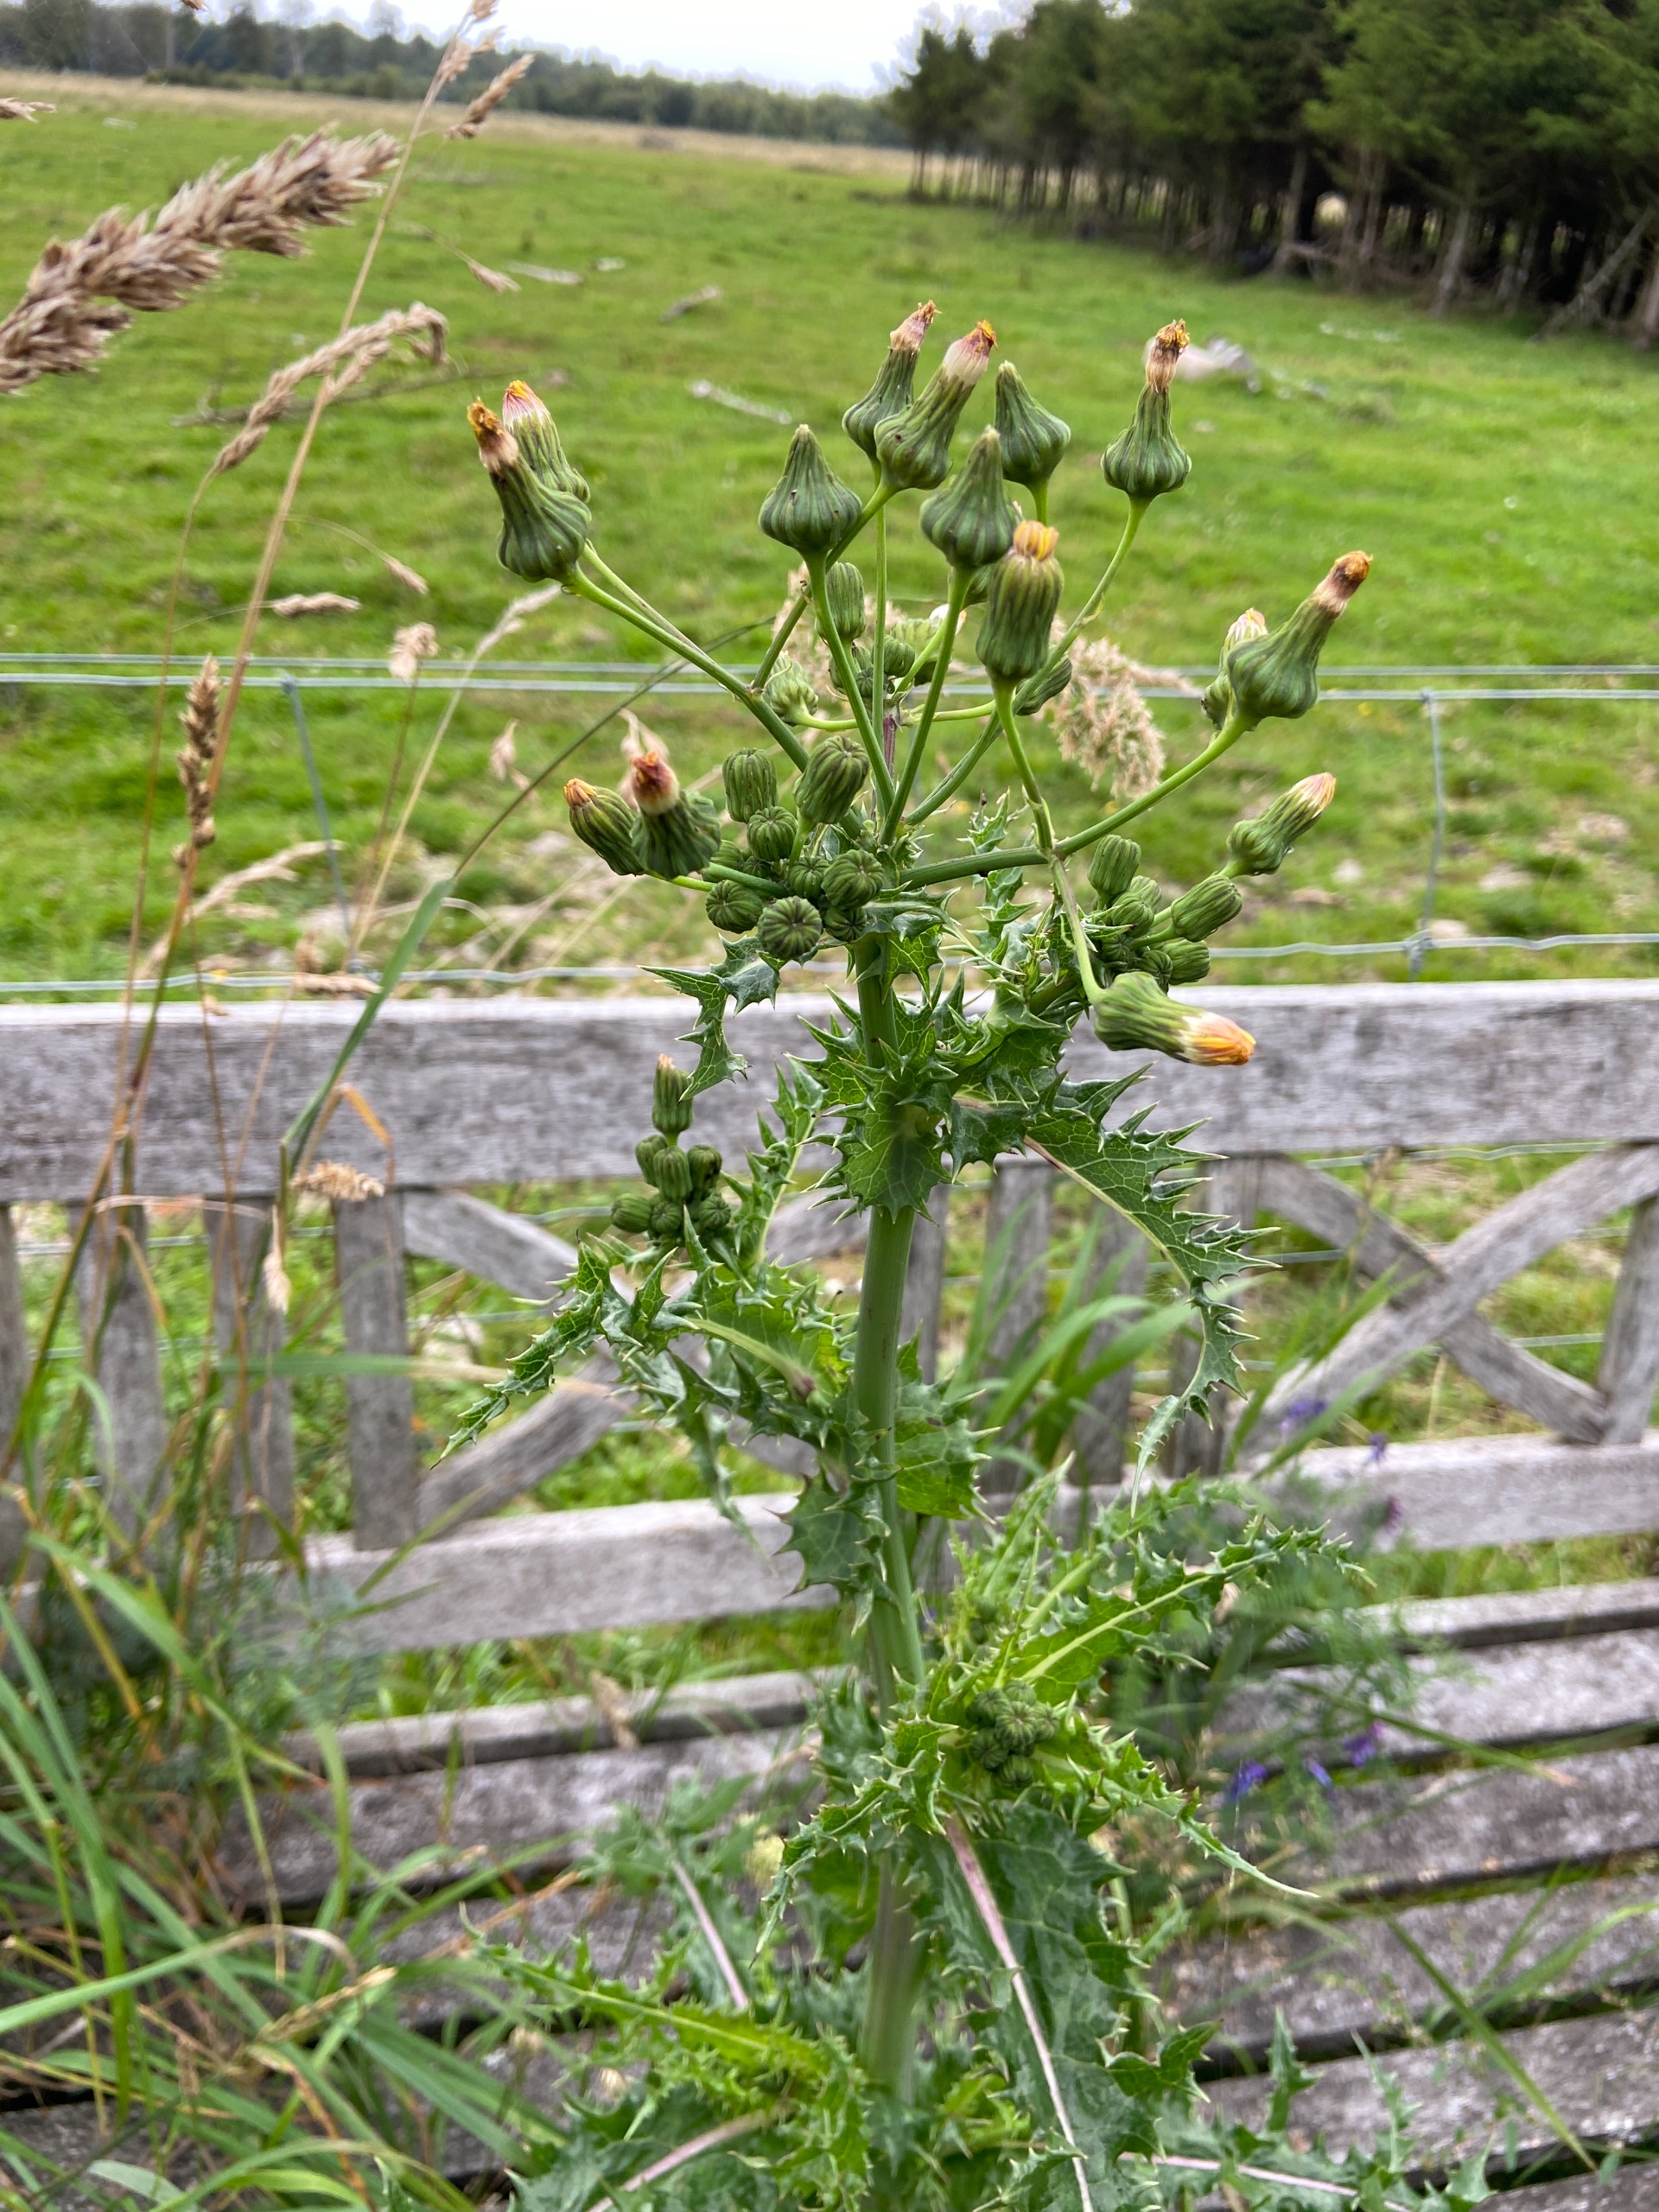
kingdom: Plantae
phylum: Tracheophyta
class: Magnoliopsida
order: Asterales
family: Asteraceae
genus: Sonchus
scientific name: Sonchus asper
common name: Ru svinemælk
